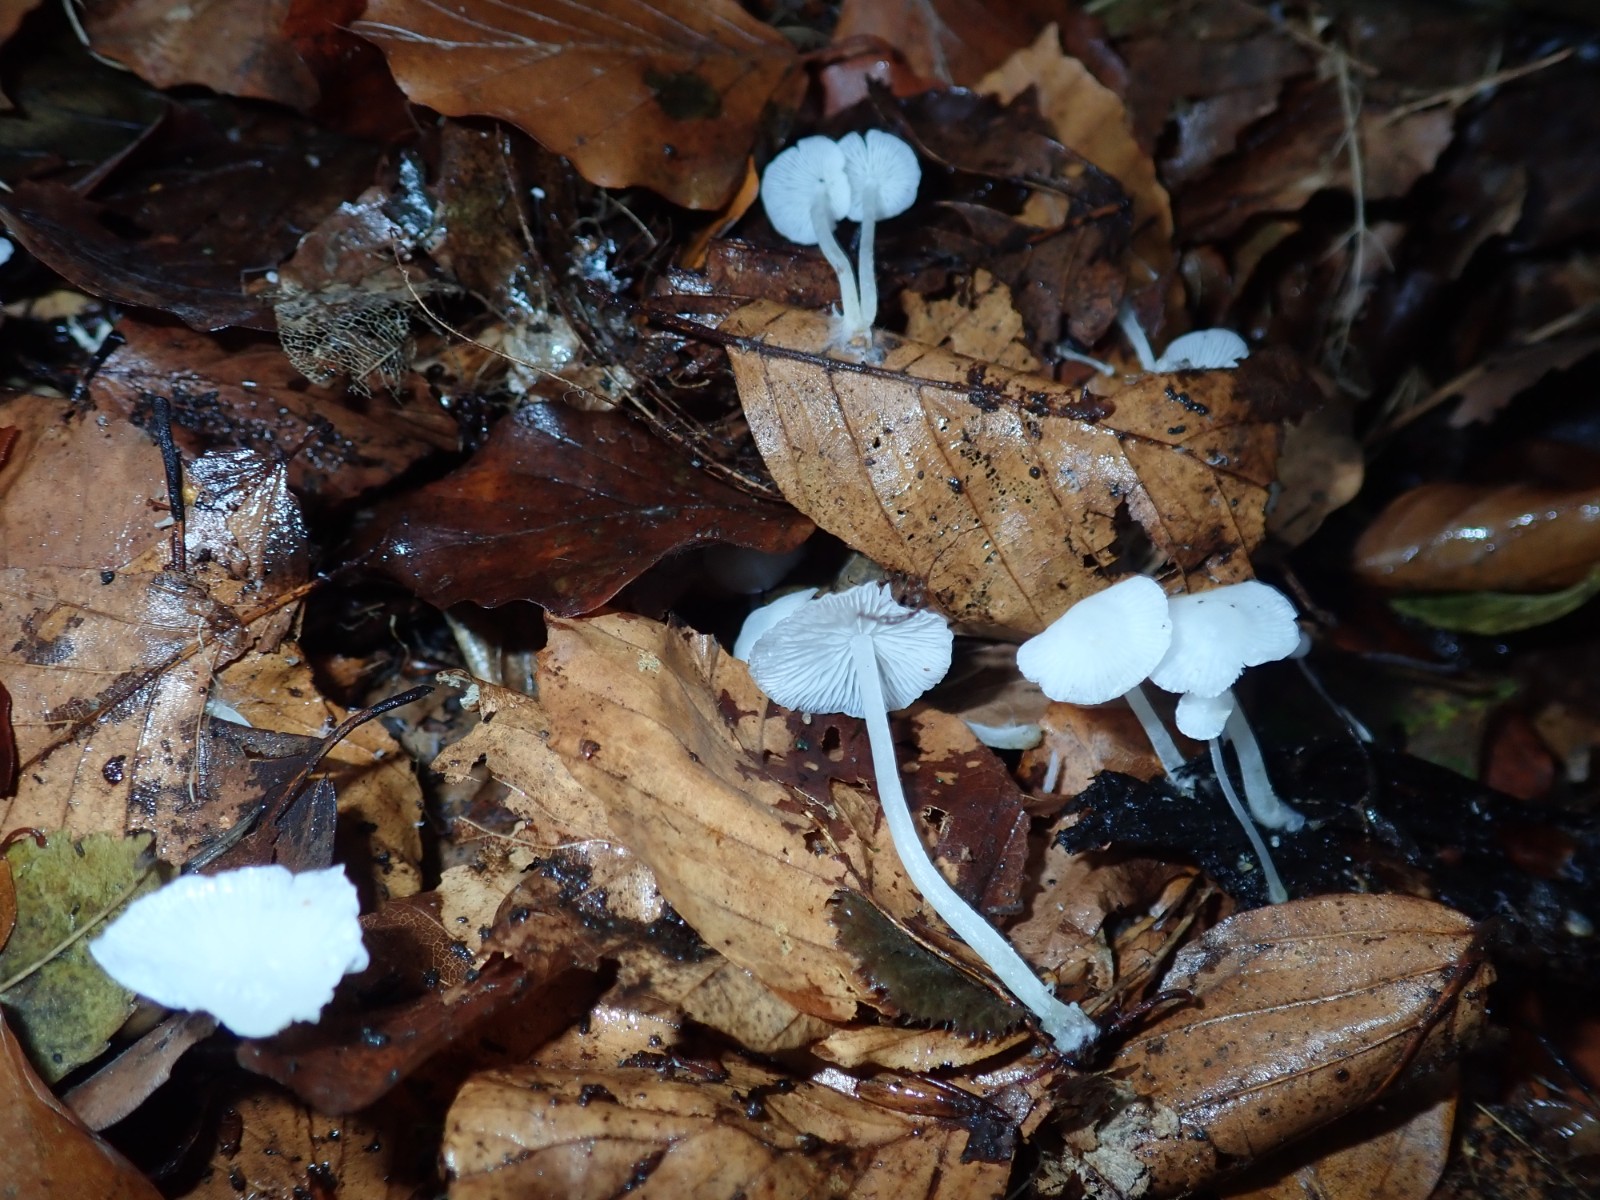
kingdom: Fungi
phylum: Basidiomycota
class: Agaricomycetes
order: Agaricales
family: Mycenaceae
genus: Hemimycena
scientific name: Hemimycena lactea
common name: mælkehvid huesvamp
